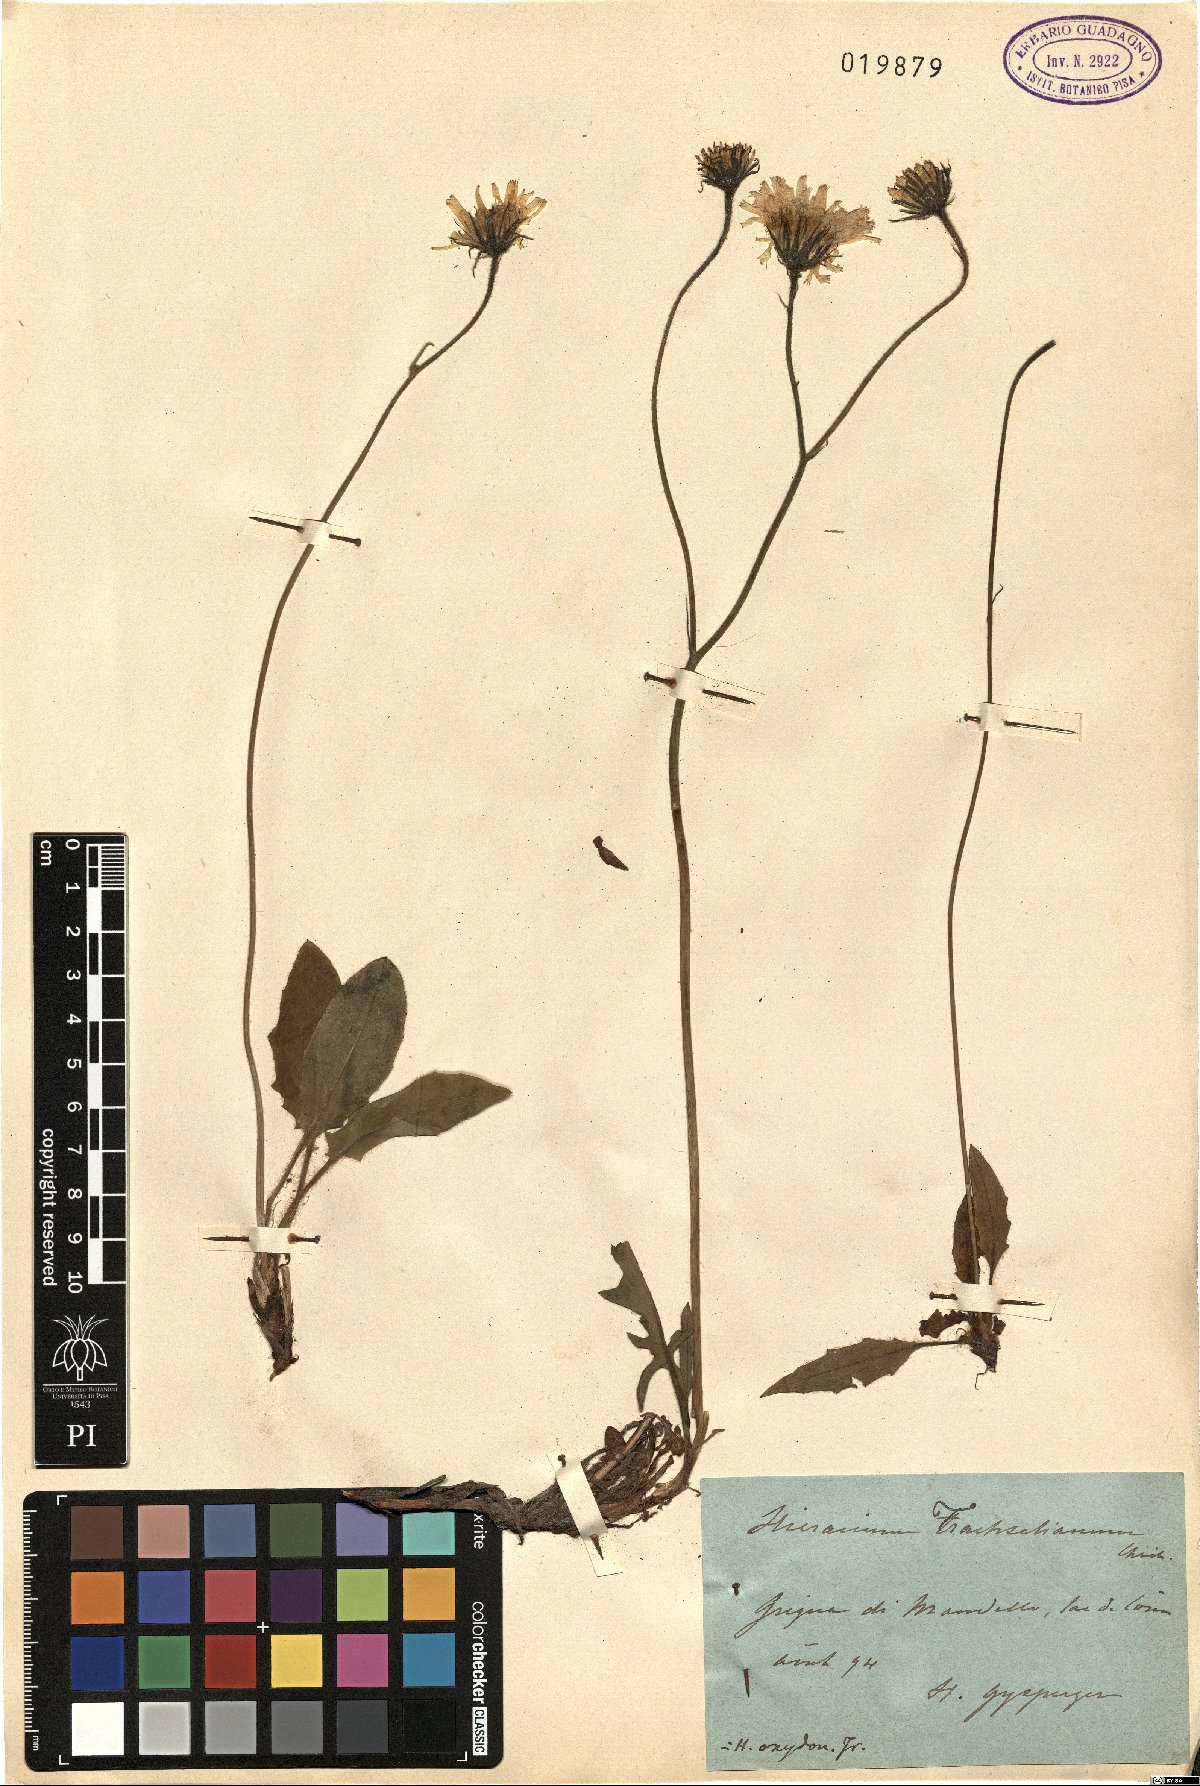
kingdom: Plantae
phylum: Tracheophyta
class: Magnoliopsida
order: Asterales
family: Asteraceae
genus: Hieracium
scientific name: Hieracium pallescens
